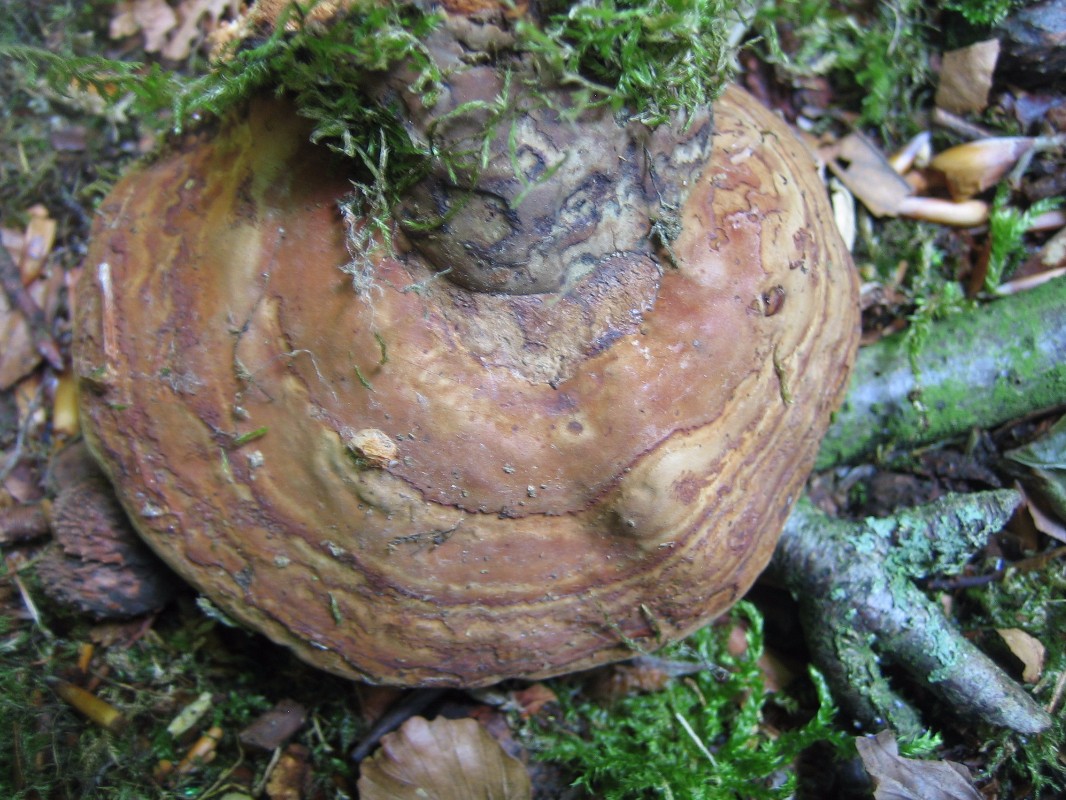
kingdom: Fungi
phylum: Basidiomycota
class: Agaricomycetes
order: Polyporales
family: Polyporaceae
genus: Fomes
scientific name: Fomes fomentarius
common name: tøndersvamp
